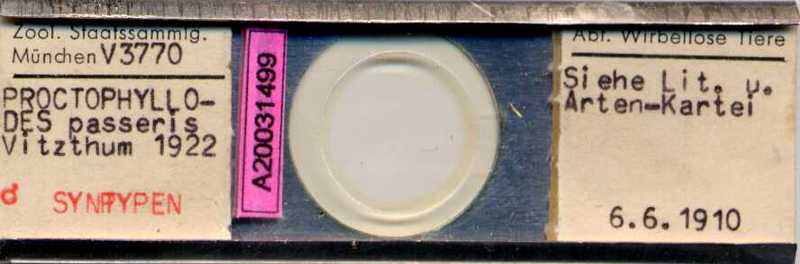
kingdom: Animalia
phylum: Arthropoda
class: Arachnida
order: Sarcoptiformes
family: Proctophyllodidae
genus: Proctophyllodes
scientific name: Proctophyllodes troncatus
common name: Mite
